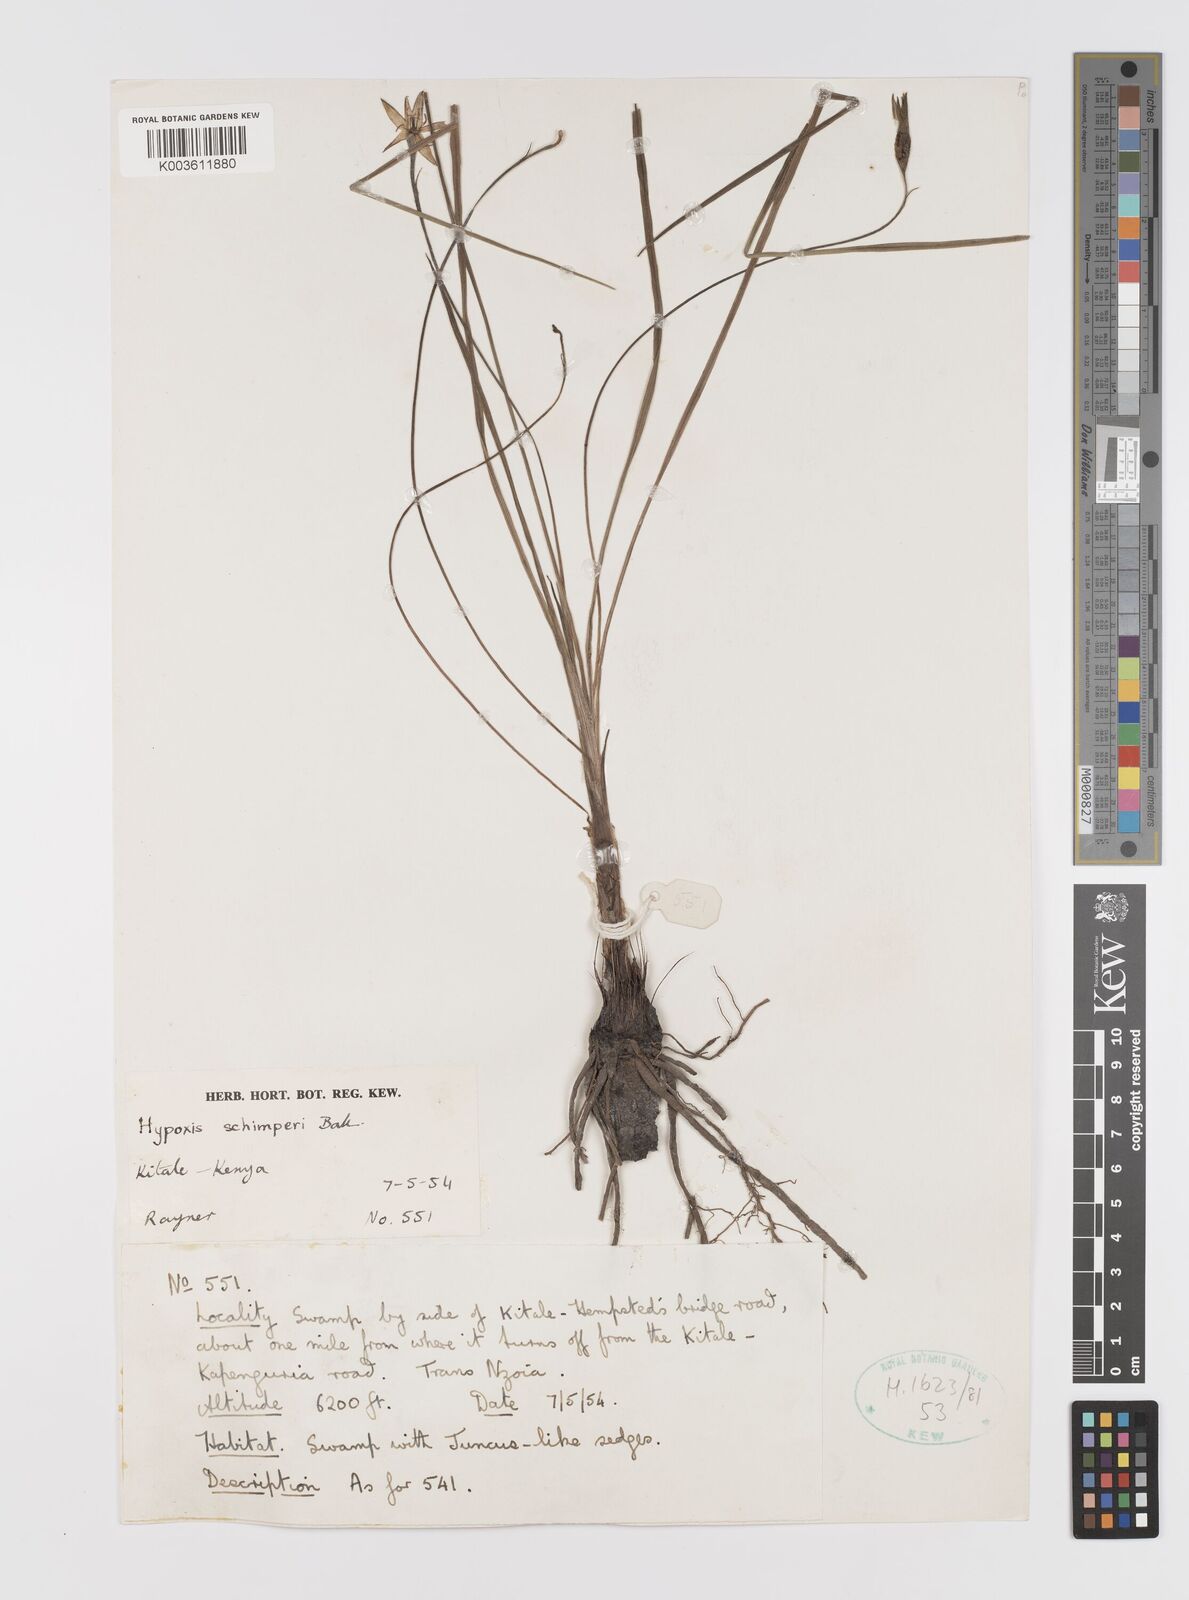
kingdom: Plantae
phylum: Tracheophyta
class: Liliopsida
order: Asparagales
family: Hypoxidaceae
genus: Hypoxis
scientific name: Hypoxis schimperi
